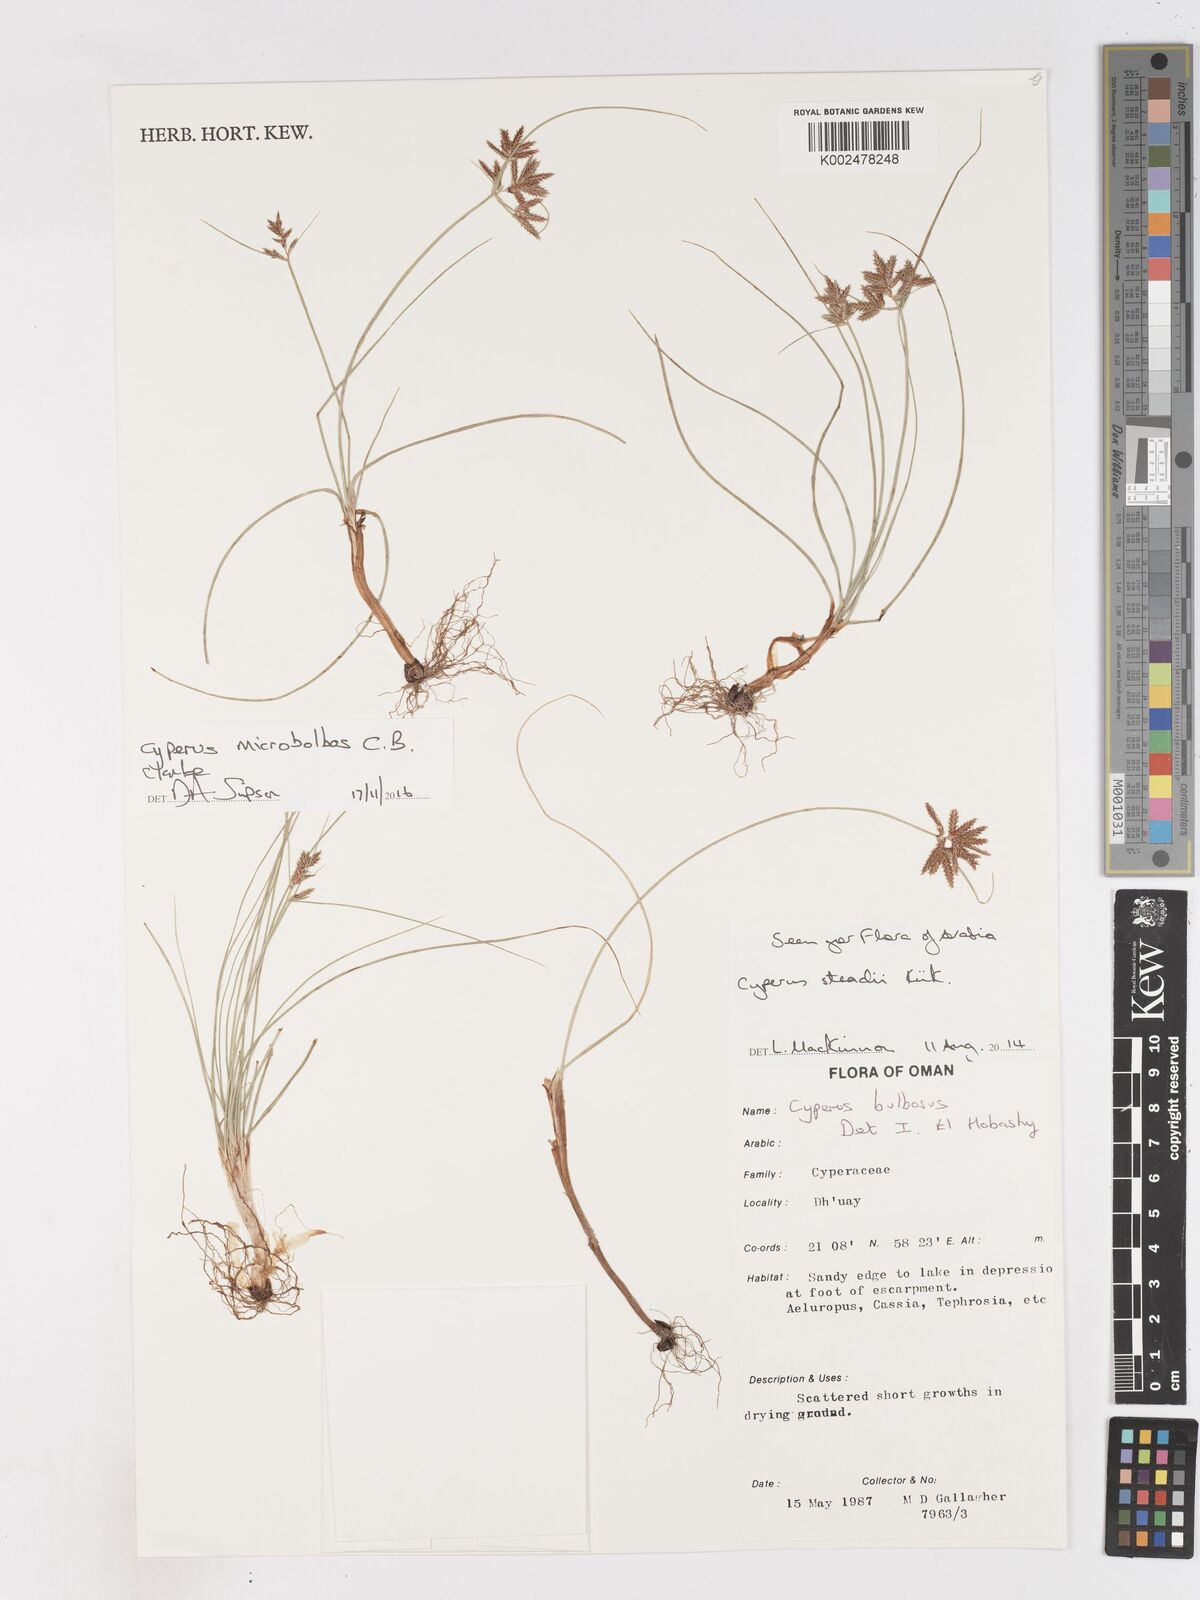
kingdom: Plantae
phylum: Tracheophyta
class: Liliopsida
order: Poales
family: Cyperaceae
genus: Cyperus
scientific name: Cyperus microbolbos
